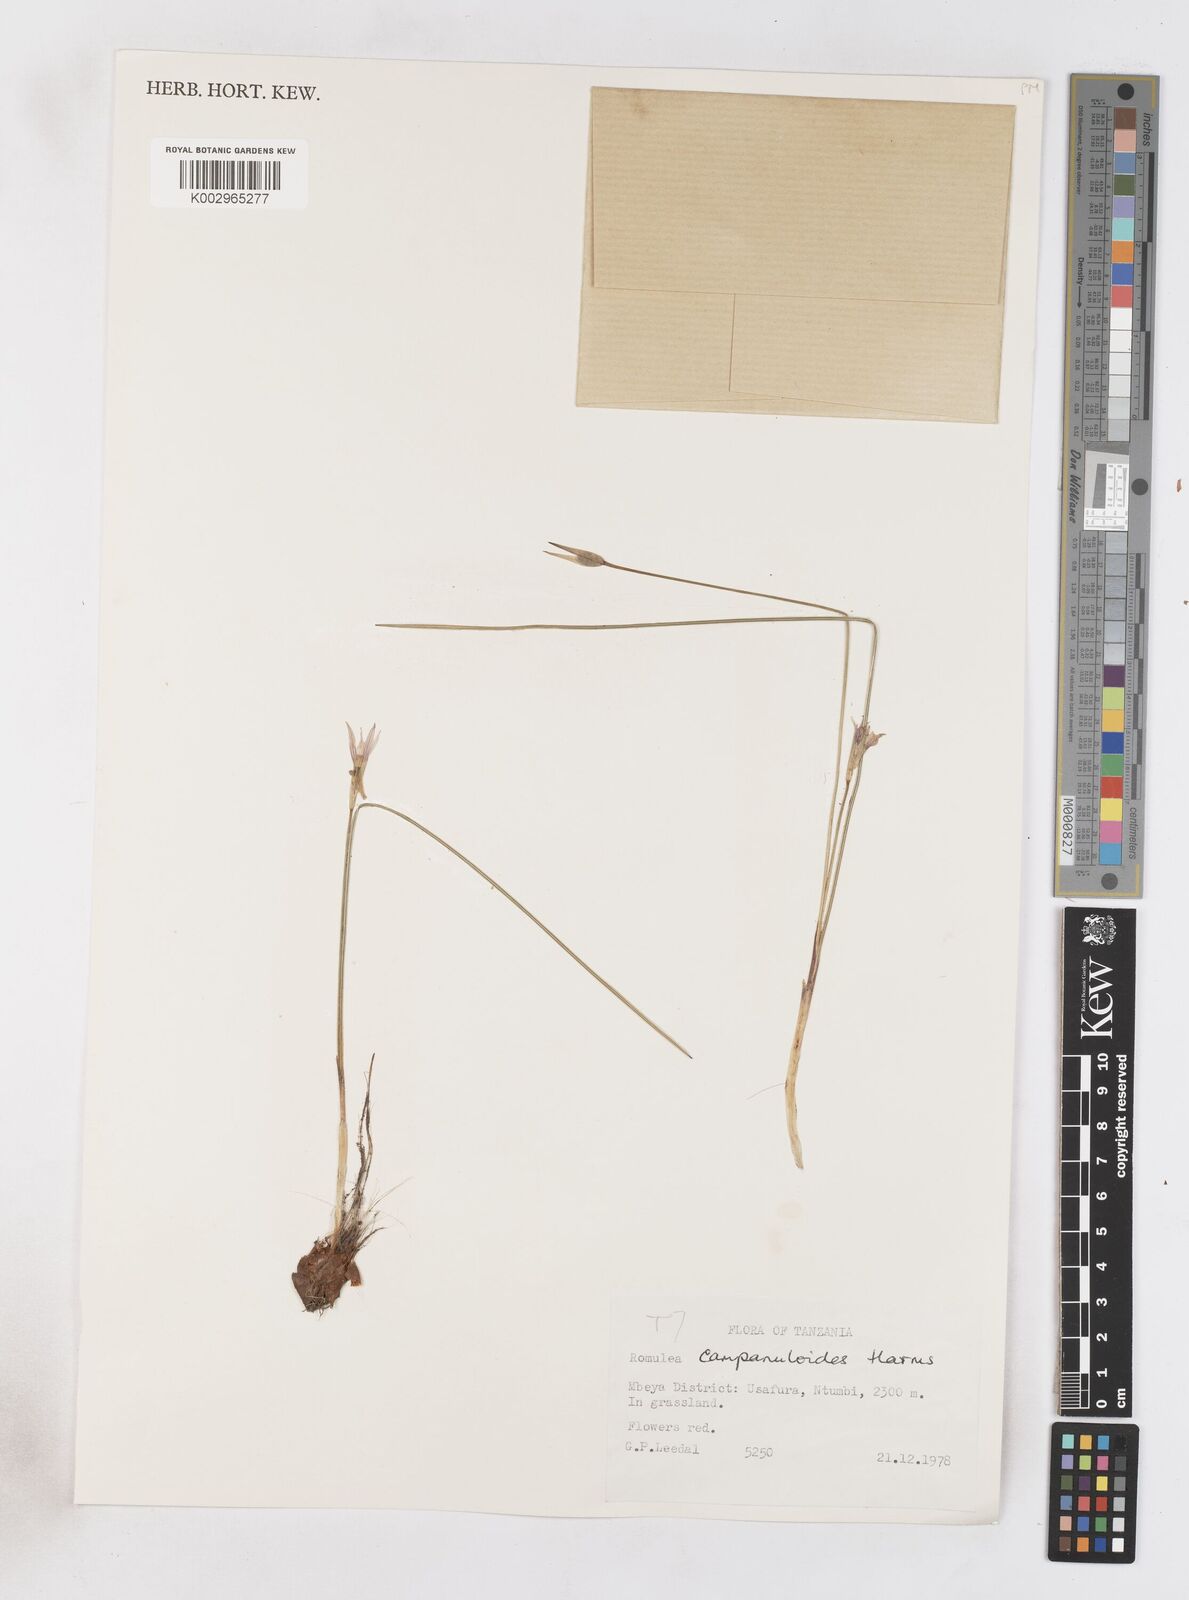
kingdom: Plantae
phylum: Tracheophyta
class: Liliopsida
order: Asparagales
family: Iridaceae
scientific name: Iridaceae
